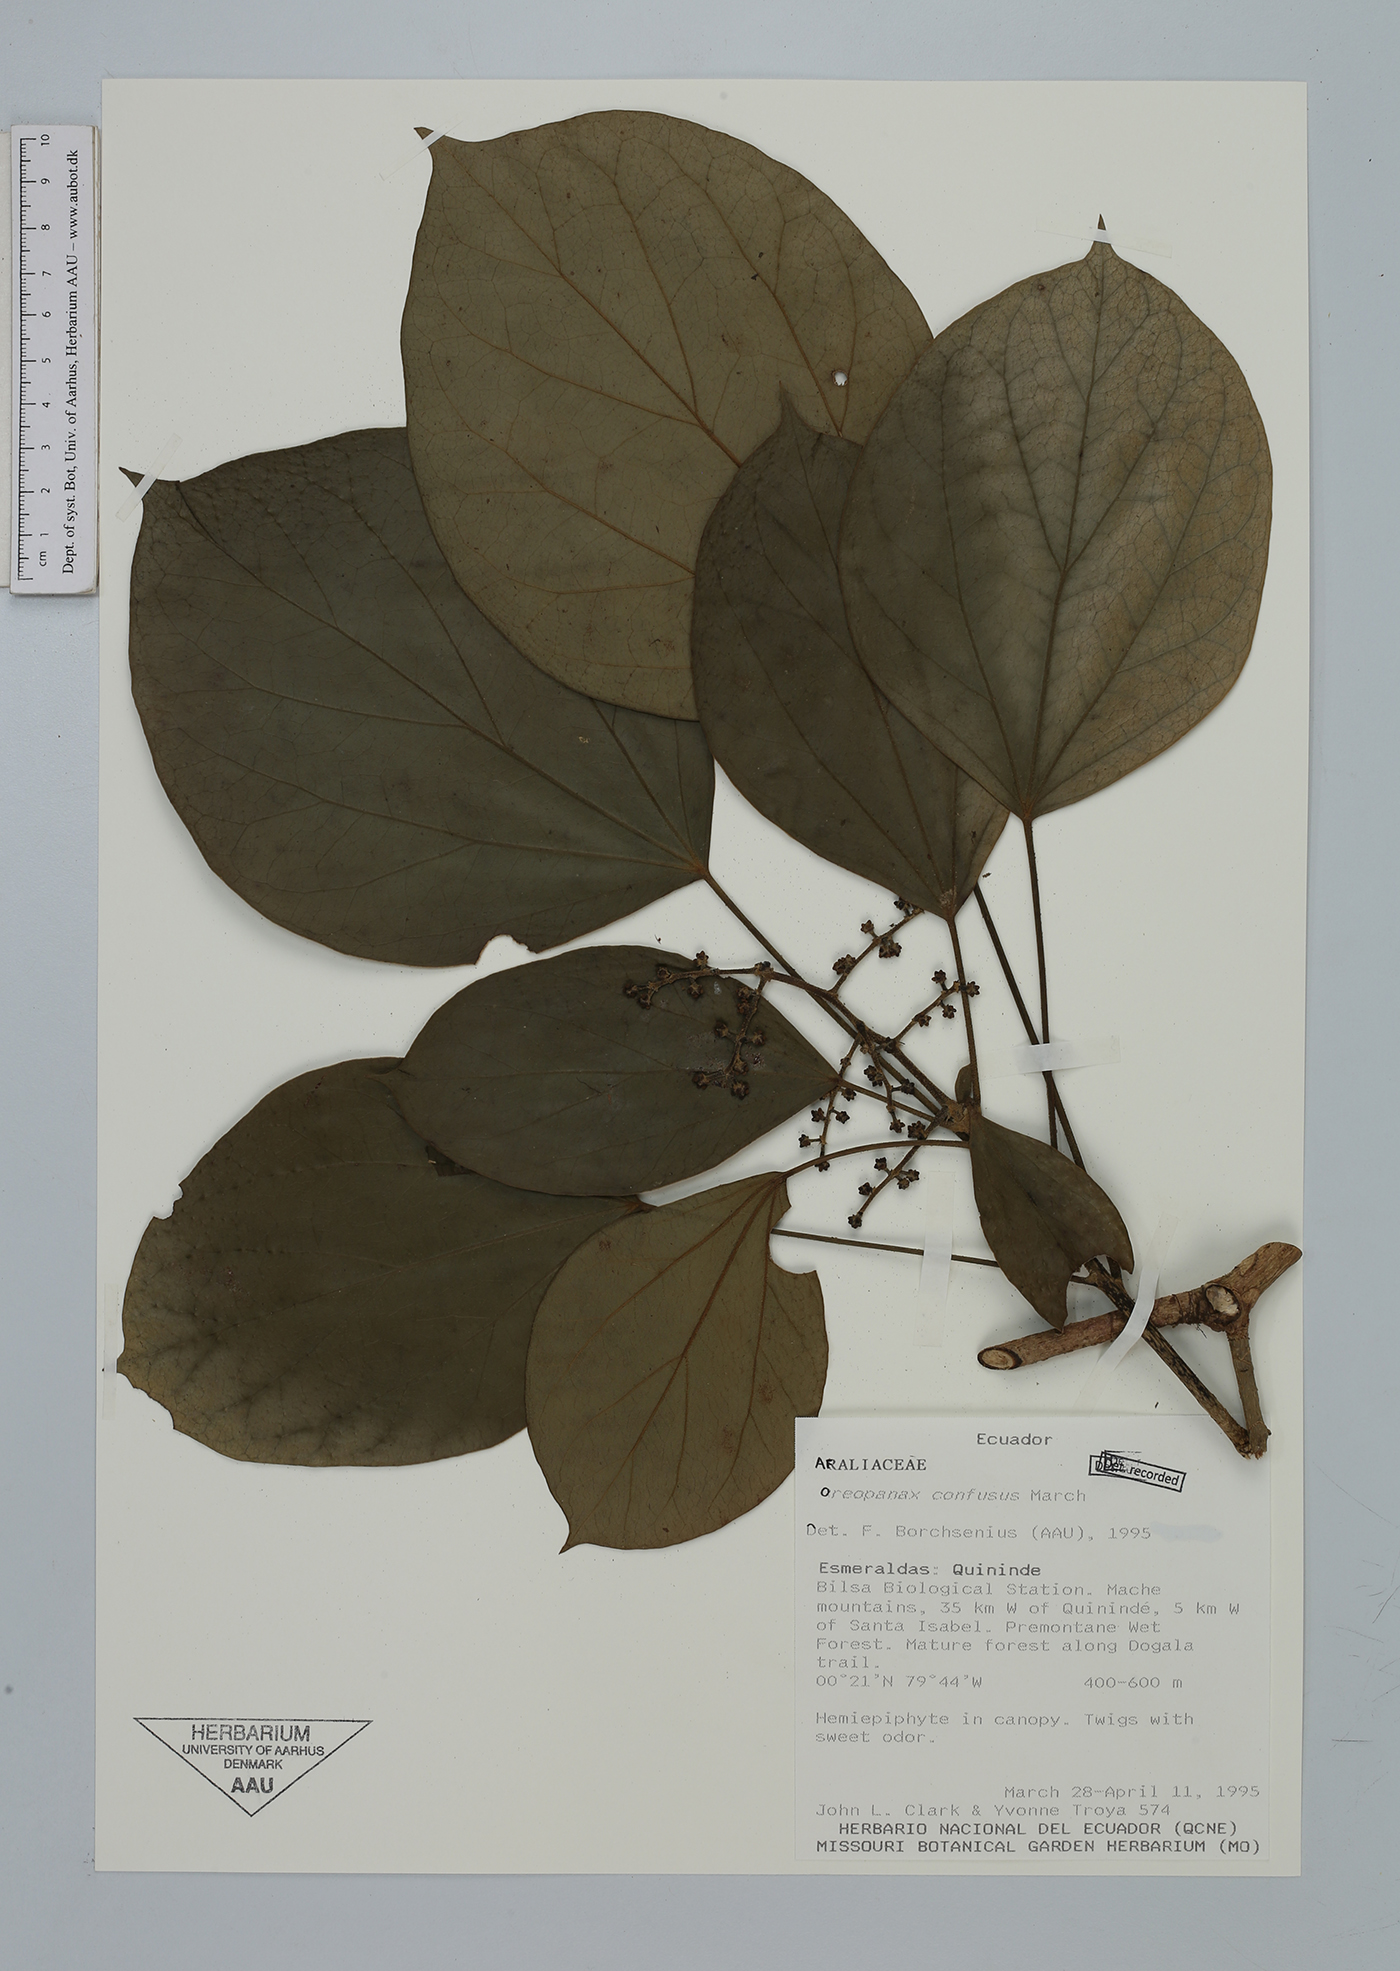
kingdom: Plantae
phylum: Tracheophyta
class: Magnoliopsida
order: Apiales
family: Araliaceae
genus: Oreopanax
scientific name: Oreopanax confusus
